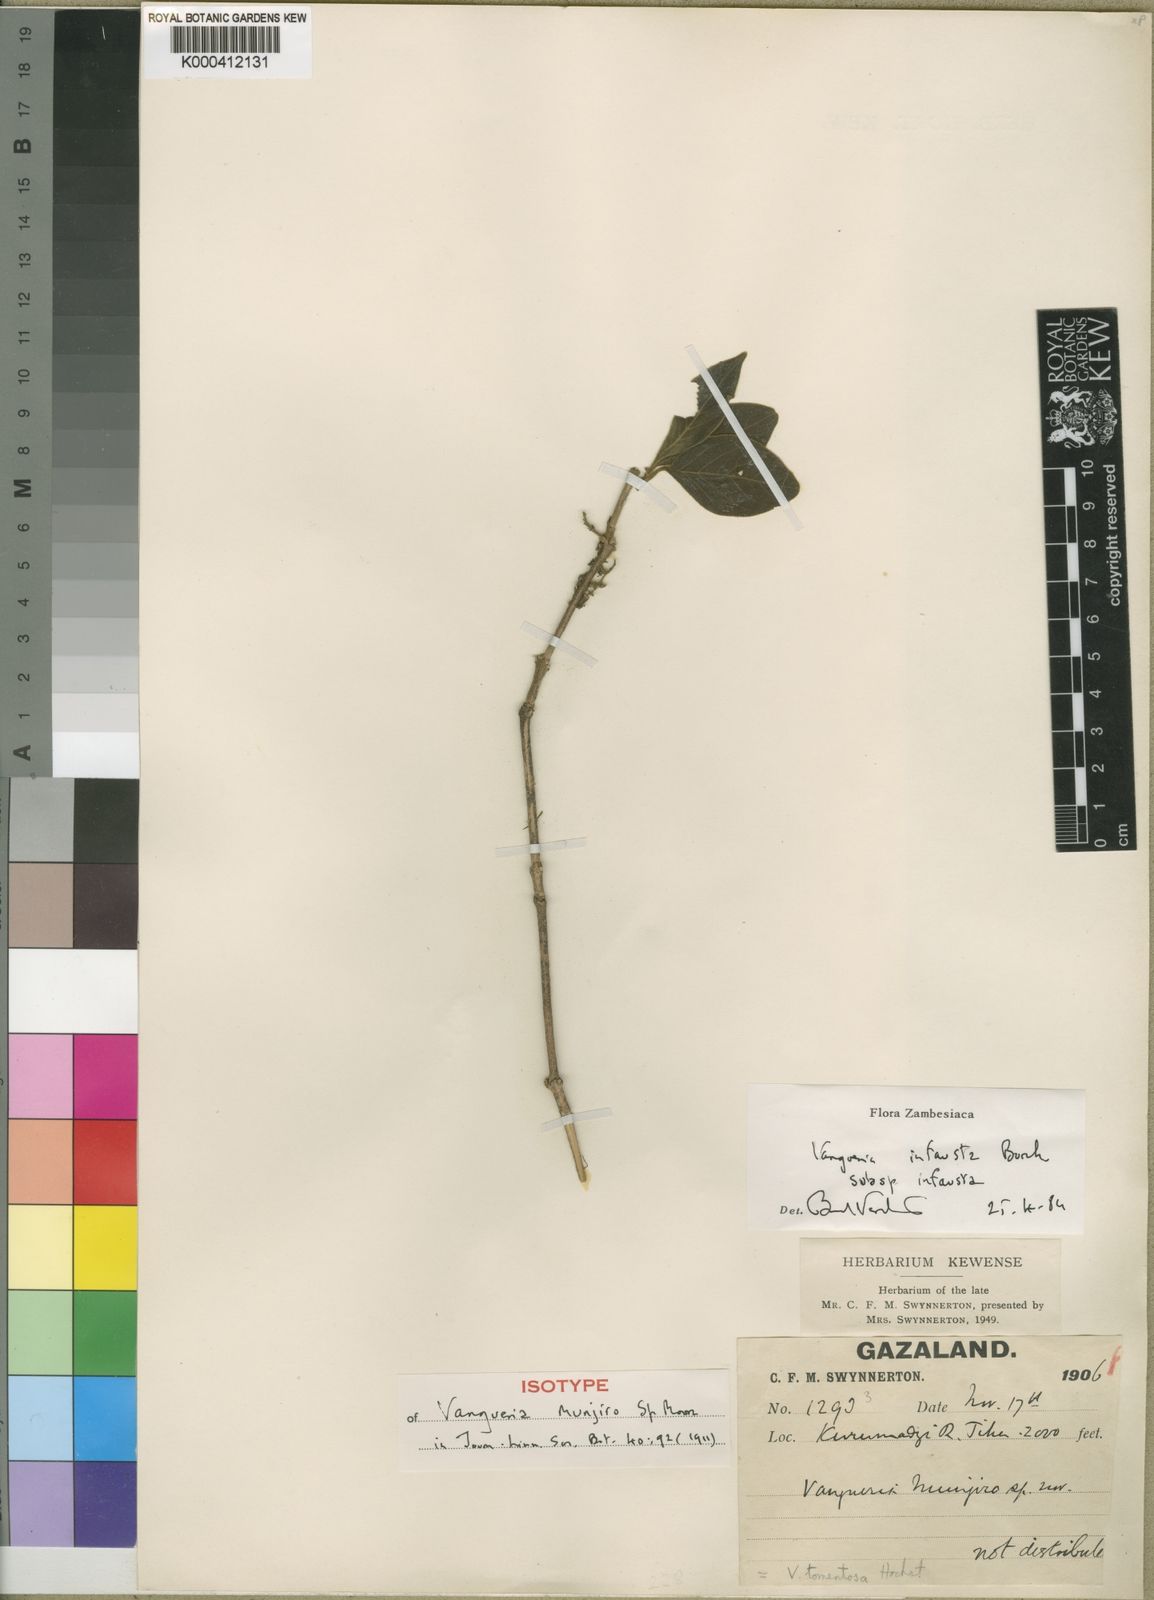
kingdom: Plantae
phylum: Tracheophyta
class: Magnoliopsida
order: Gentianales
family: Rubiaceae
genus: Vangueria
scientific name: Vangueria infausta
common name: Medlar
